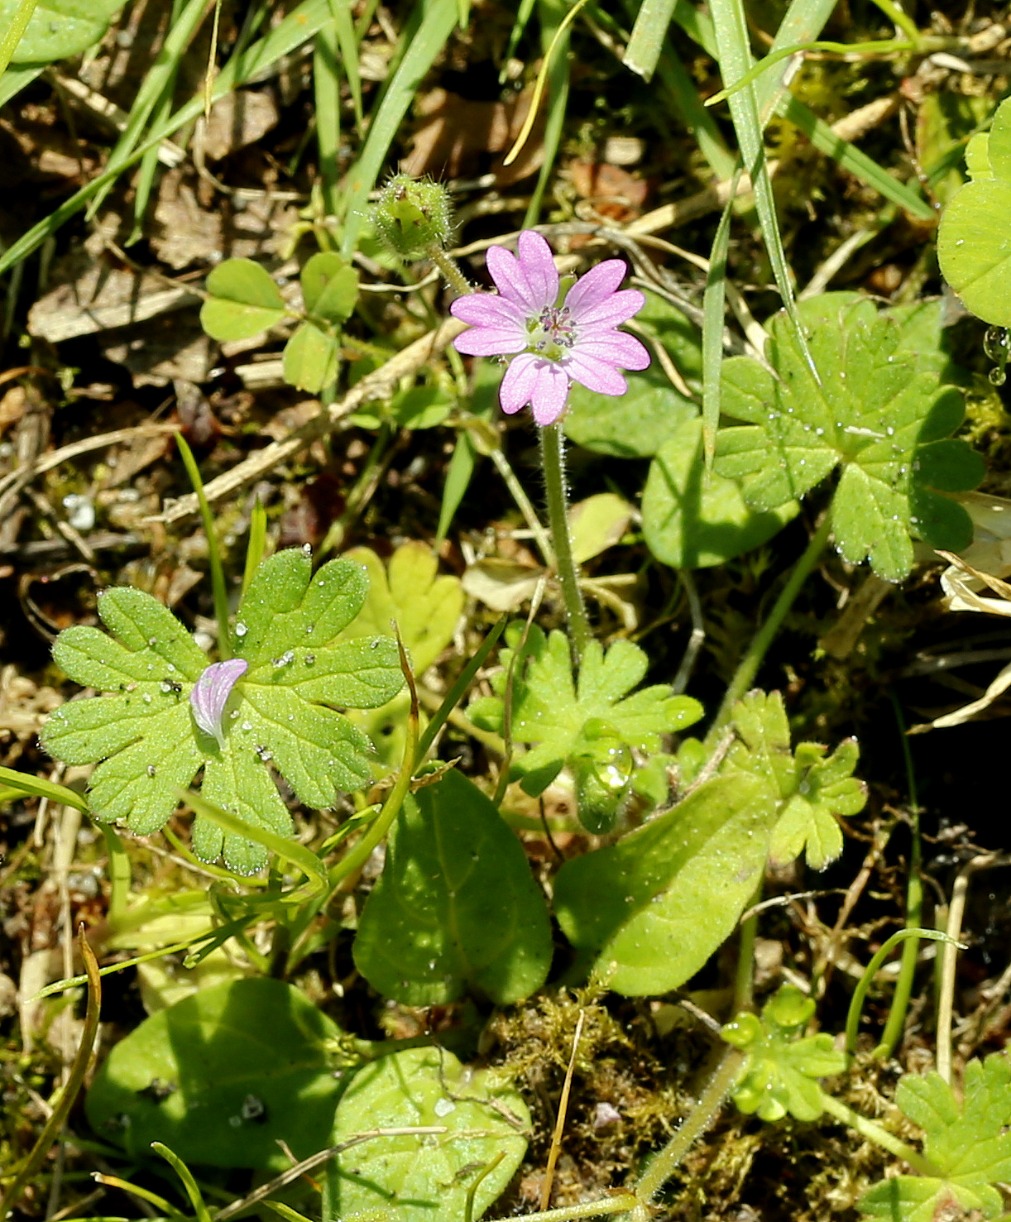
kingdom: Plantae
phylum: Tracheophyta
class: Magnoliopsida
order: Geraniales
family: Geraniaceae
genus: Geranium
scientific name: Geranium molle
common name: Blød storkenæb
